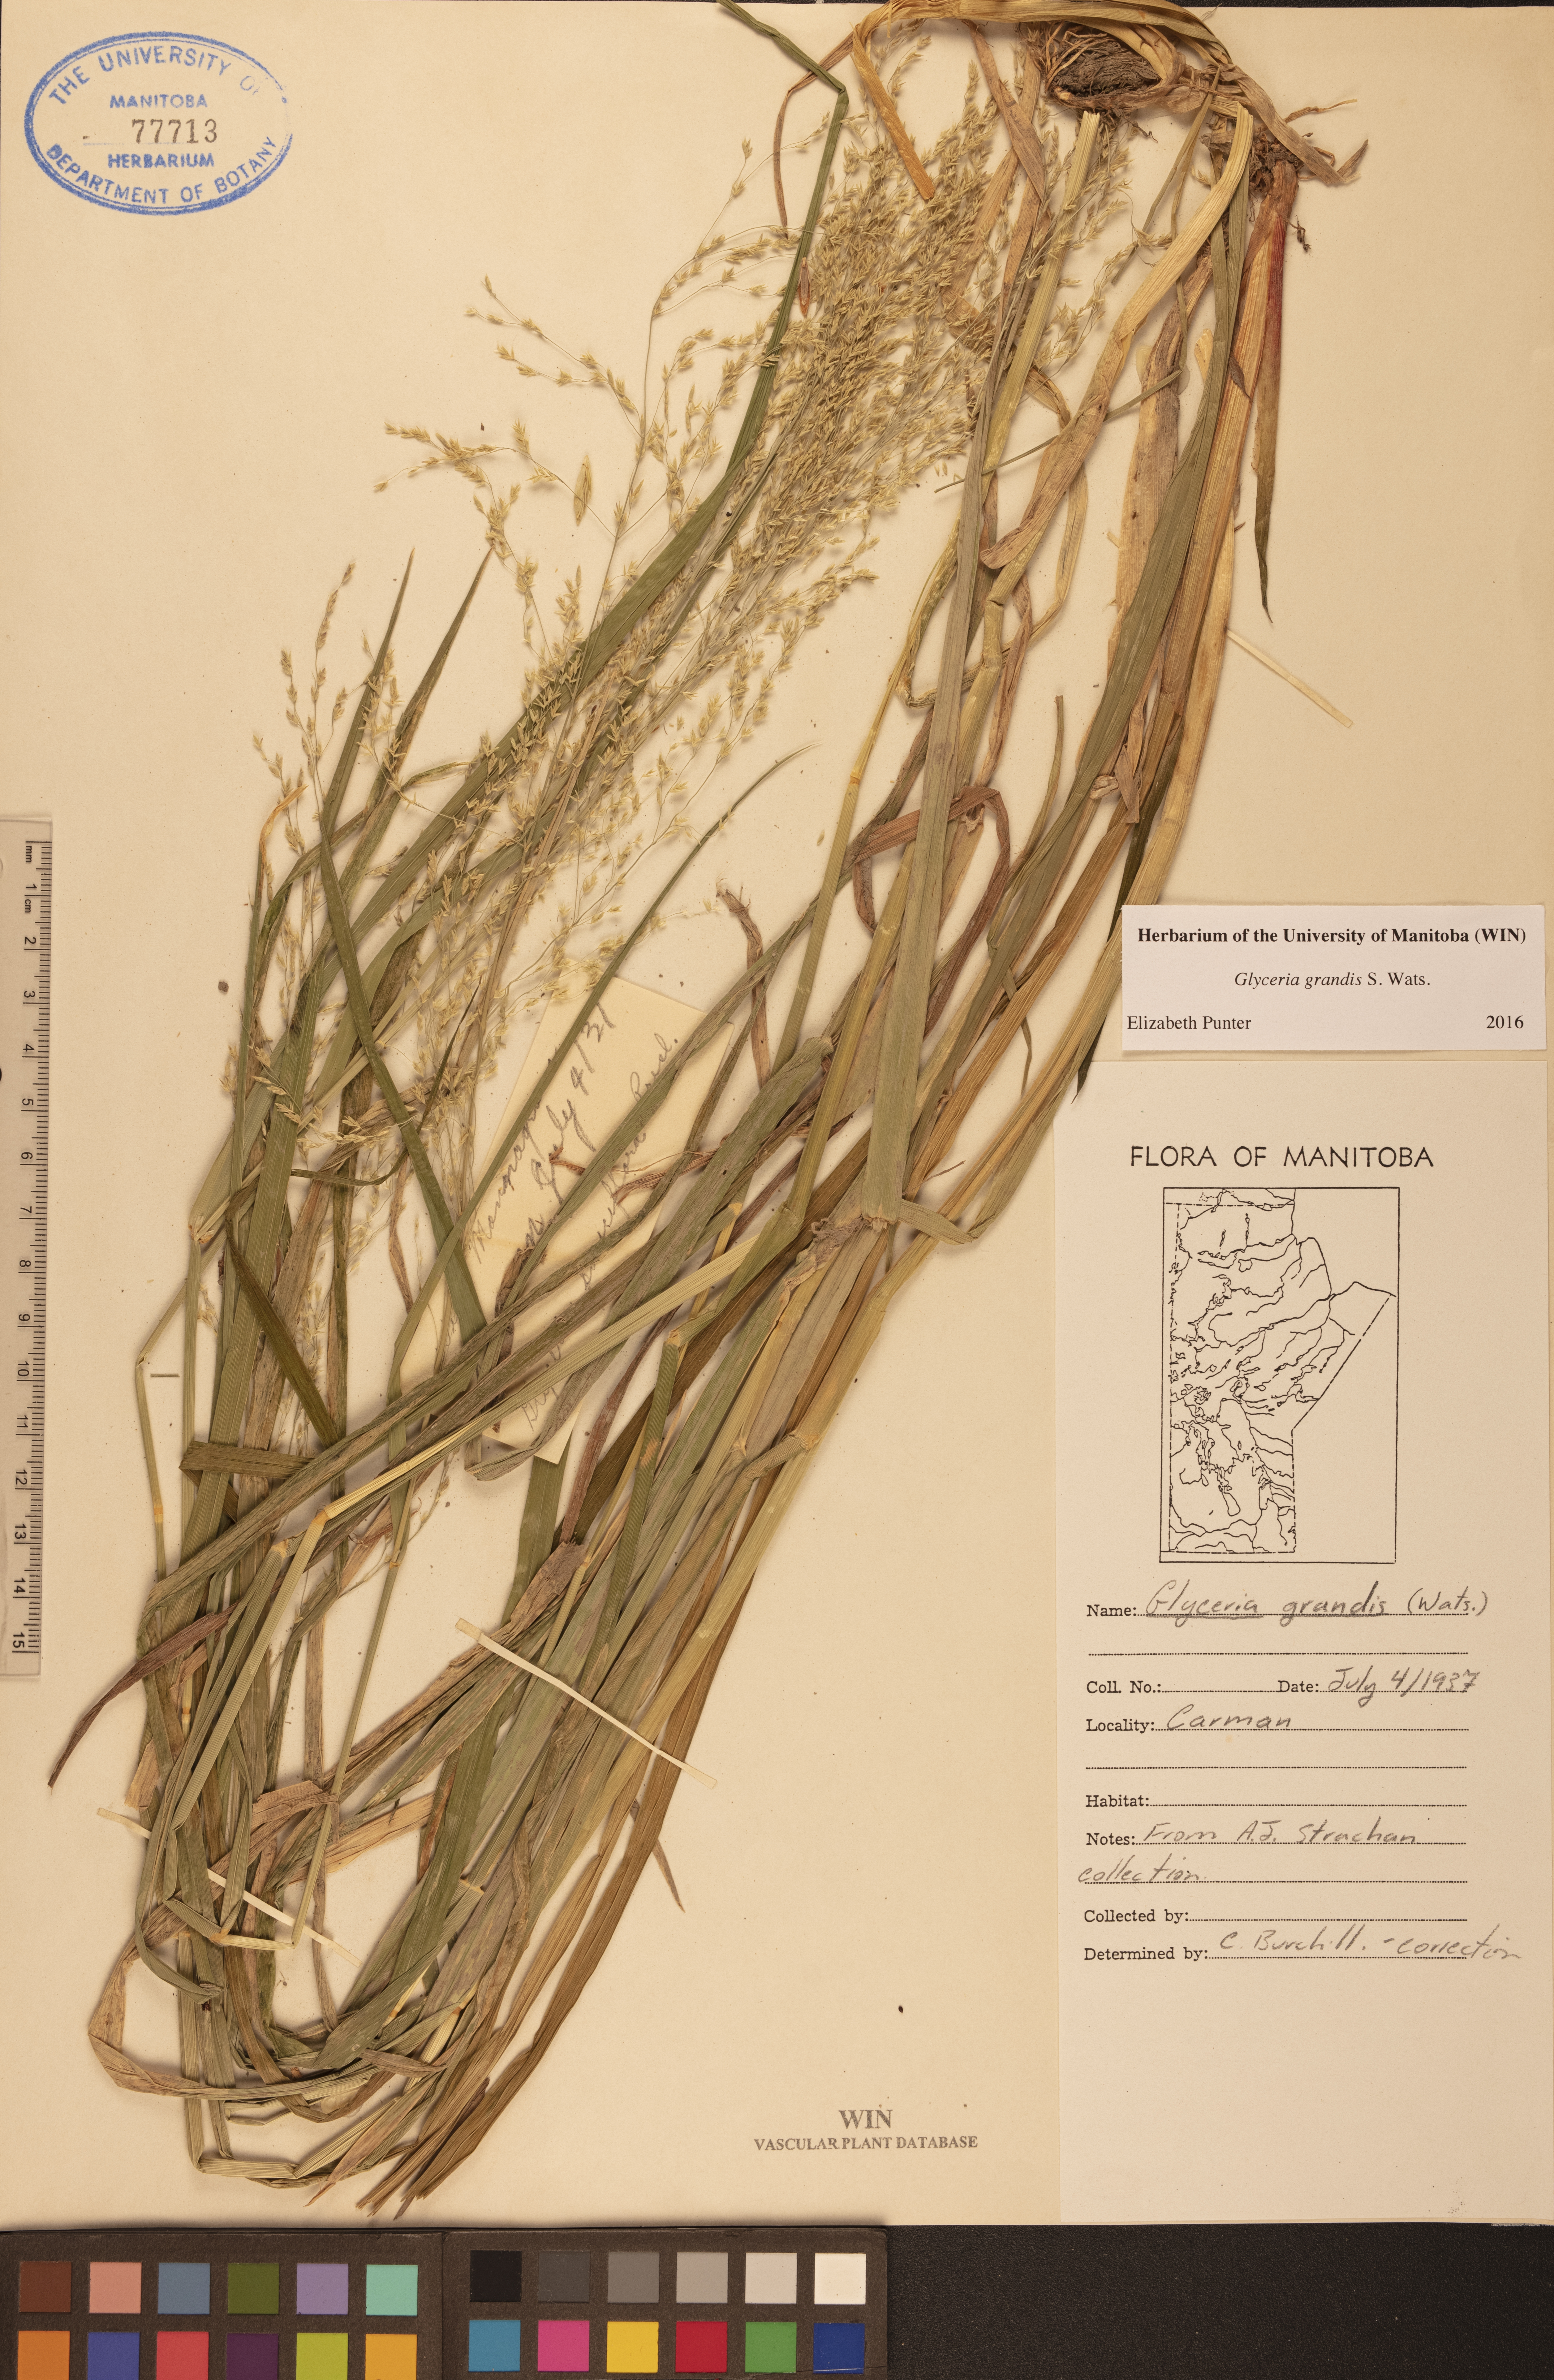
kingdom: Plantae
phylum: Tracheophyta
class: Liliopsida
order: Poales
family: Poaceae
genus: Glyceria
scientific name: Glyceria grandis
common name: American glyceria
